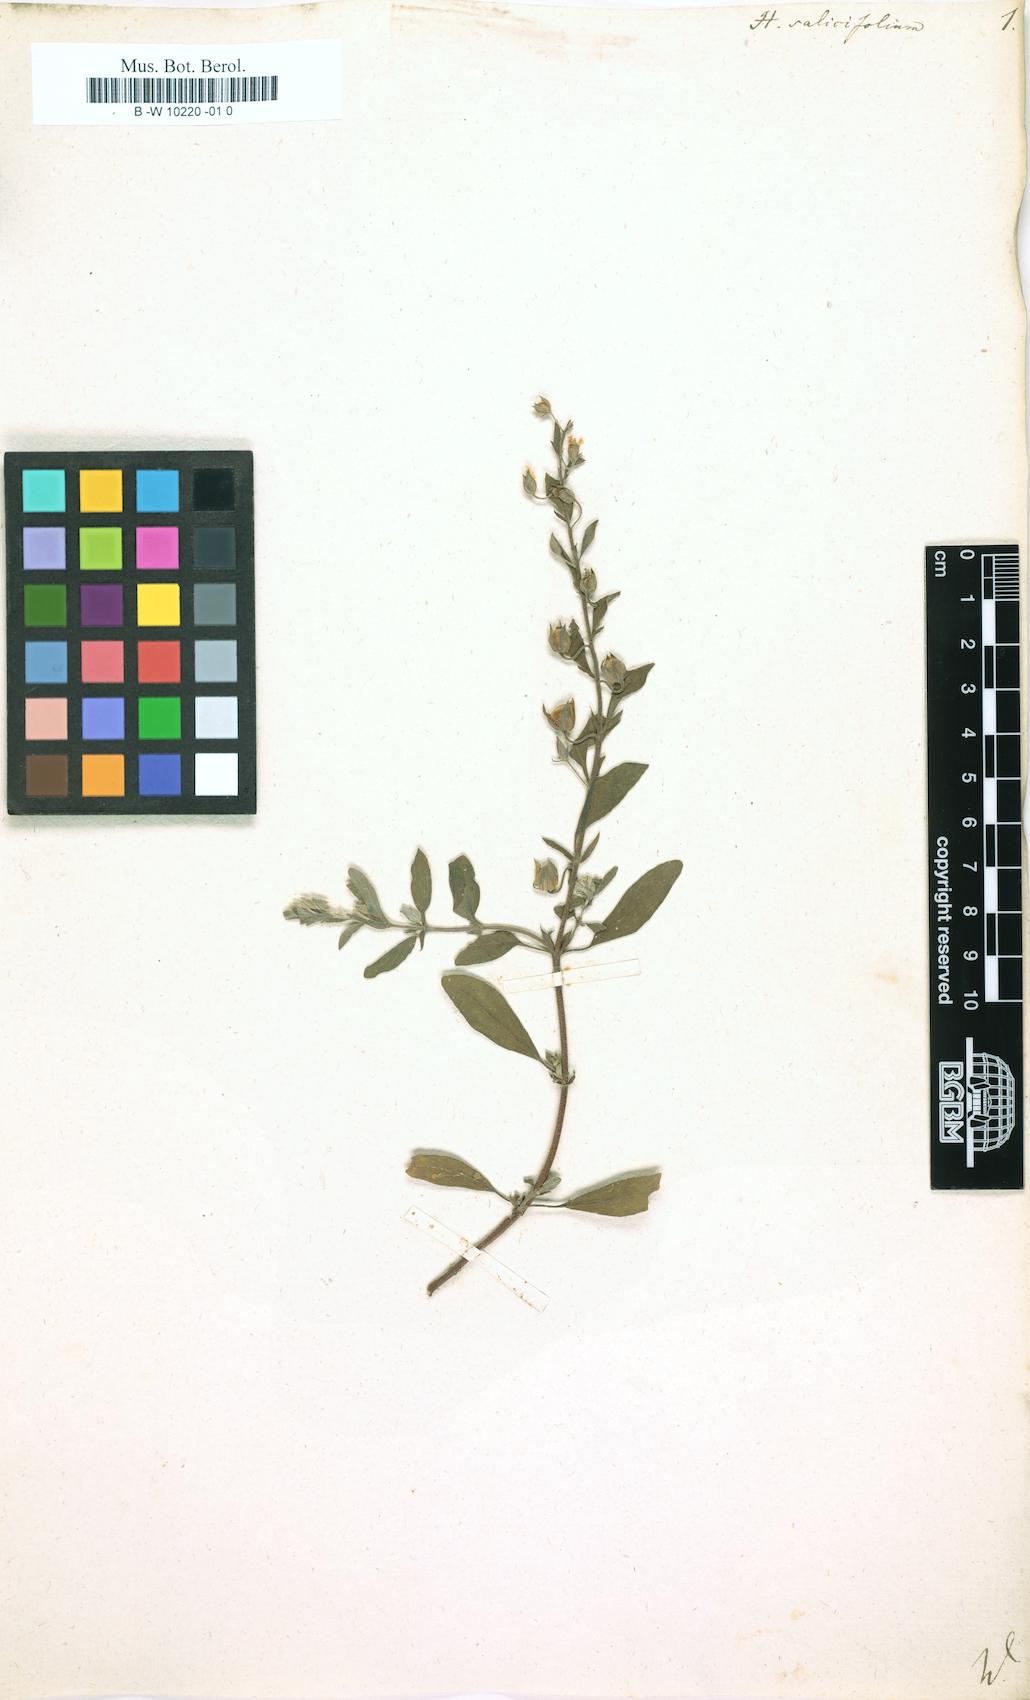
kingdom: Plantae
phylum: Tracheophyta
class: Magnoliopsida
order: Malvales
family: Cistaceae
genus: Helianthemum
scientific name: Helianthemum salicifolium
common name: Willowleaf frostweed
